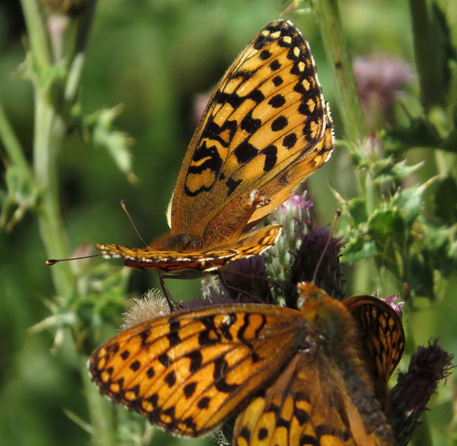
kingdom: Animalia
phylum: Arthropoda
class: Insecta
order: Lepidoptera
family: Nymphalidae
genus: Speyeria
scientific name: Speyeria zerene
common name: Zerene Fritillary
